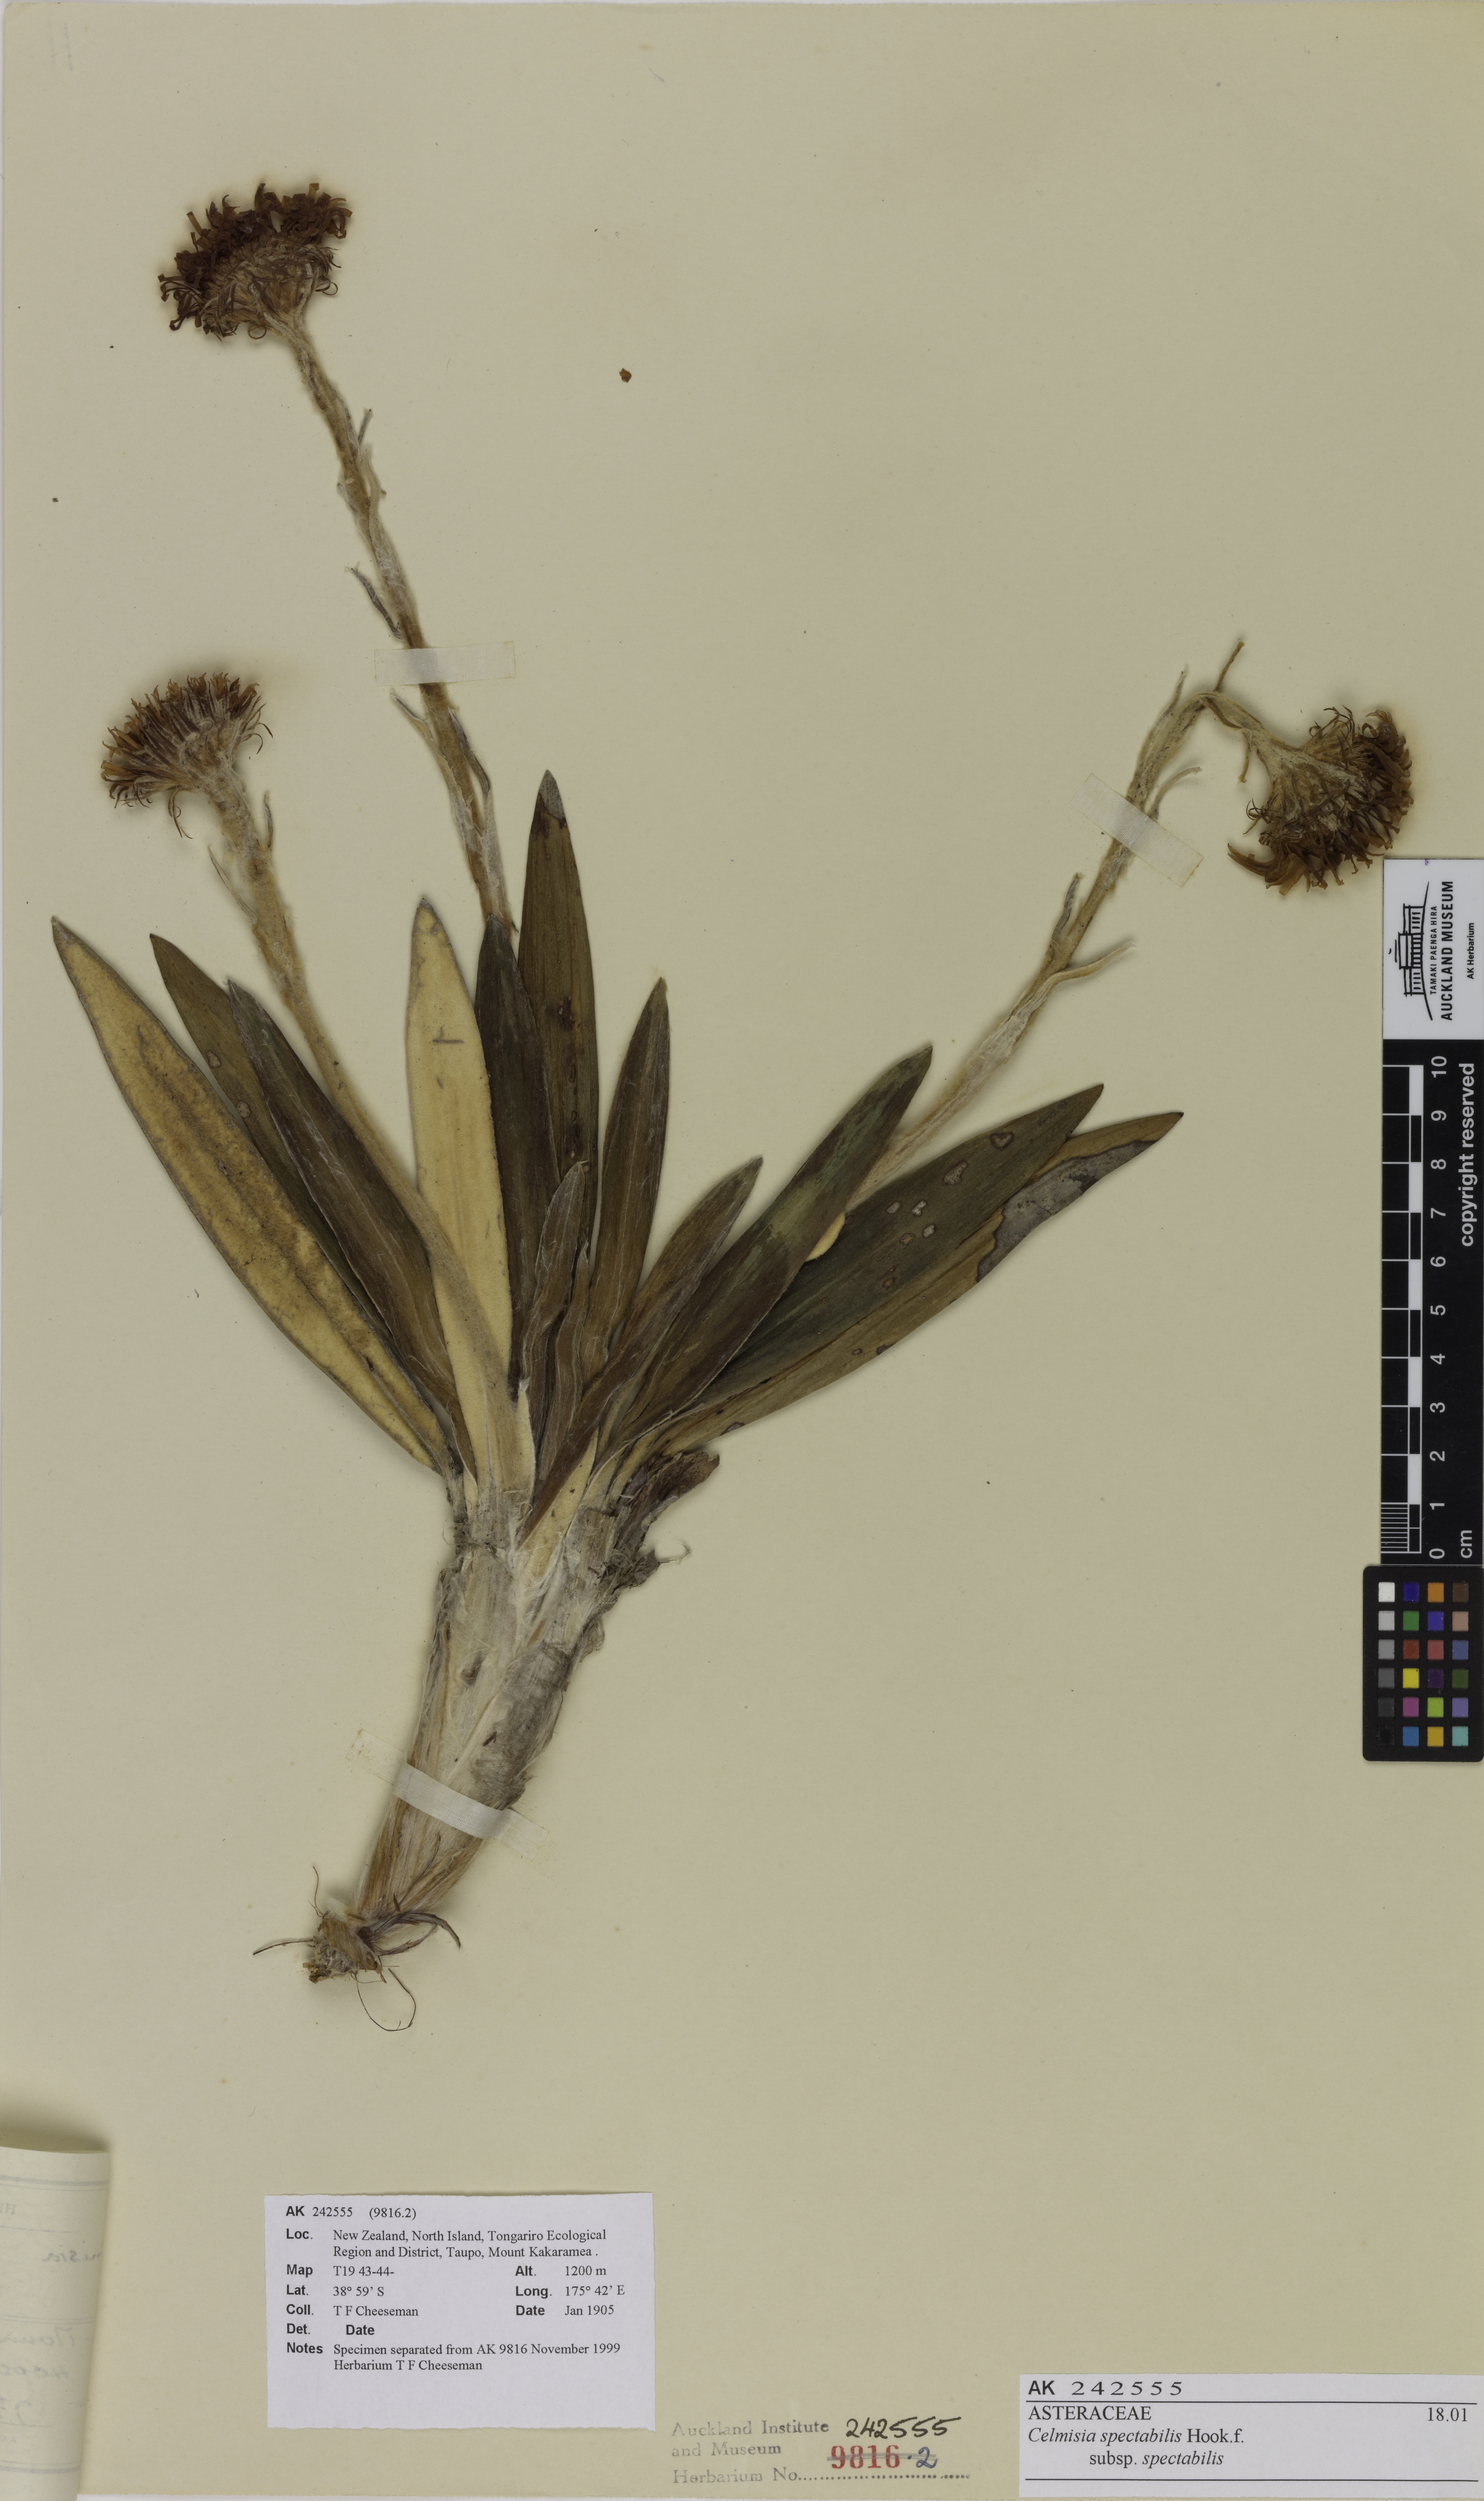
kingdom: Plantae
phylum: Tracheophyta
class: Magnoliopsida
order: Asterales
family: Asteraceae
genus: Celmisia
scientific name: Celmisia spectabilis
